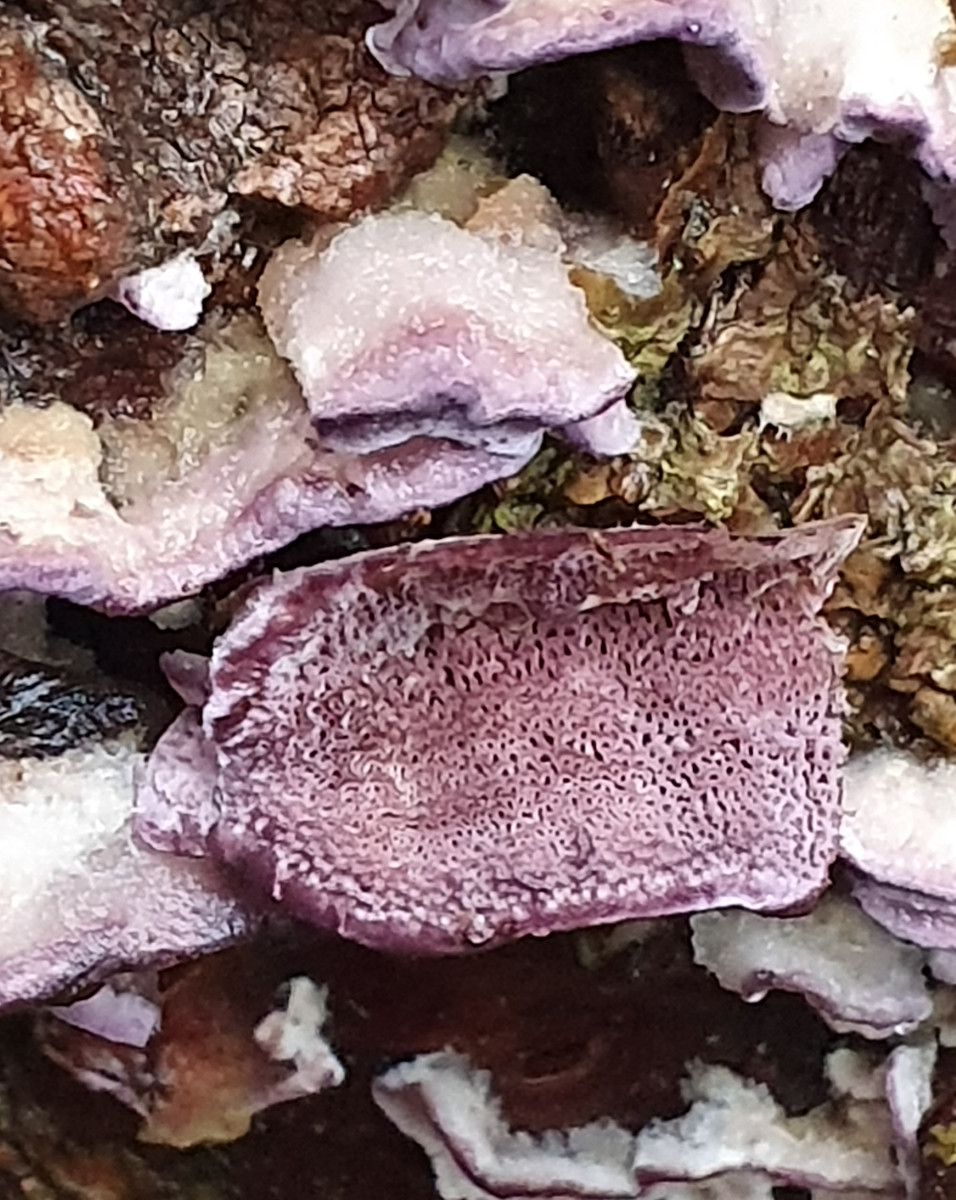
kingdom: Fungi
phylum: Basidiomycota
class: Agaricomycetes
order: Hymenochaetales
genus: Trichaptum
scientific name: Trichaptum abietinum
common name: almindelig violporesvamp
